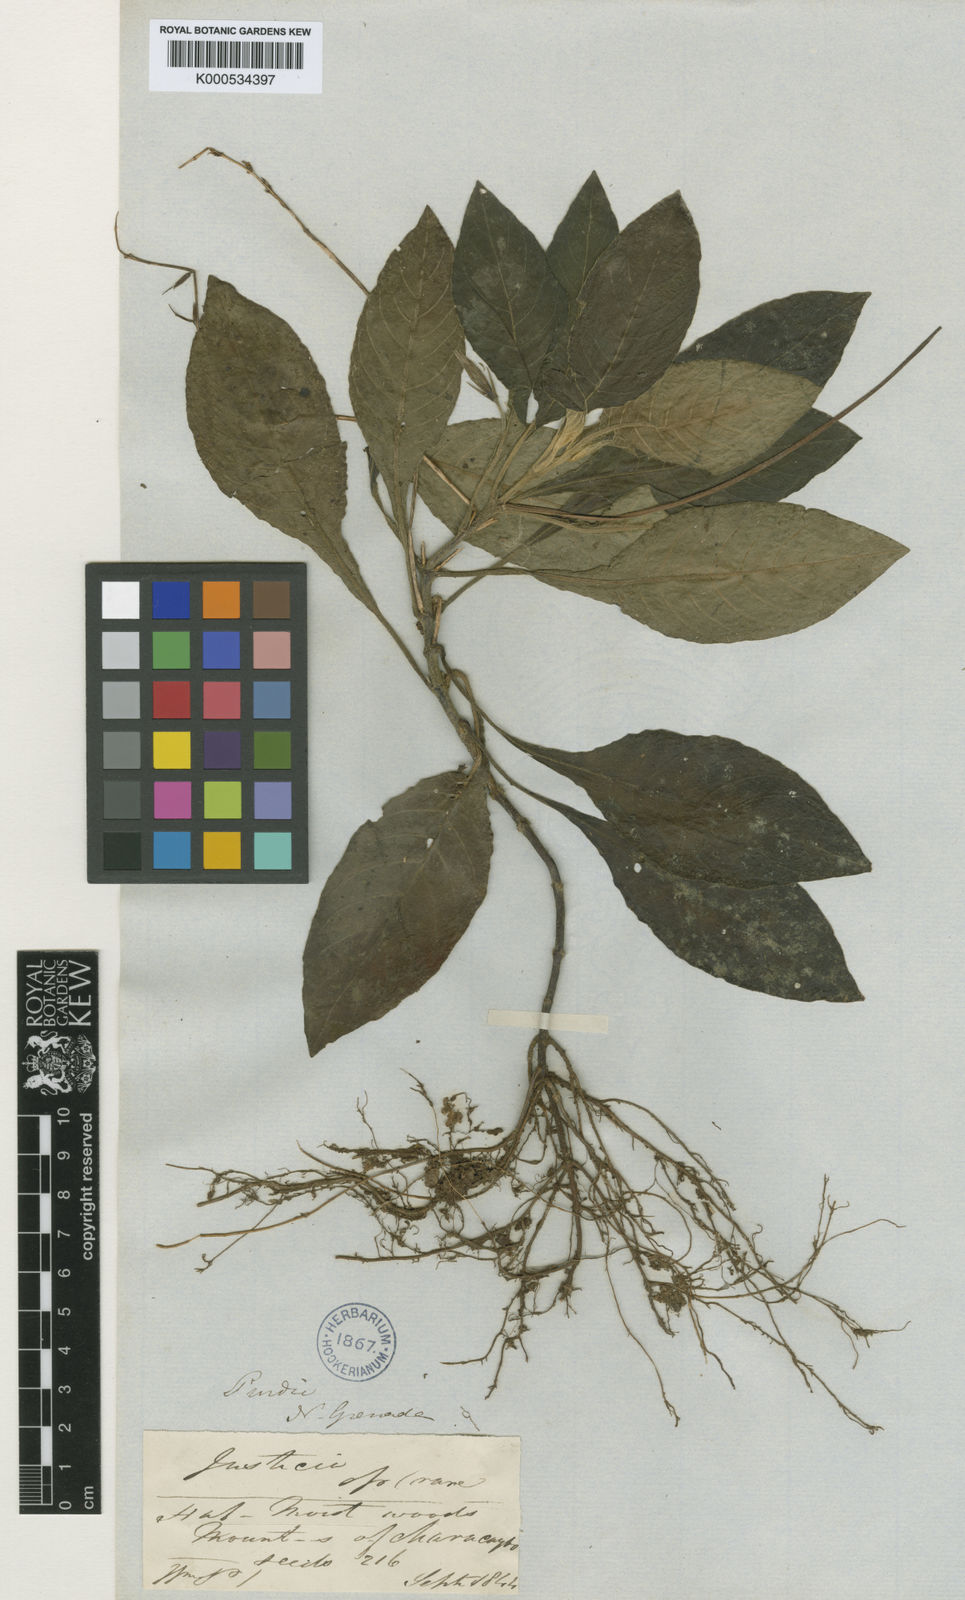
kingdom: Plantae
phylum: Tracheophyta
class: Magnoliopsida
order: Lamiales
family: Acanthaceae
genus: Stenandrium
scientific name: Stenandrium radicosum
